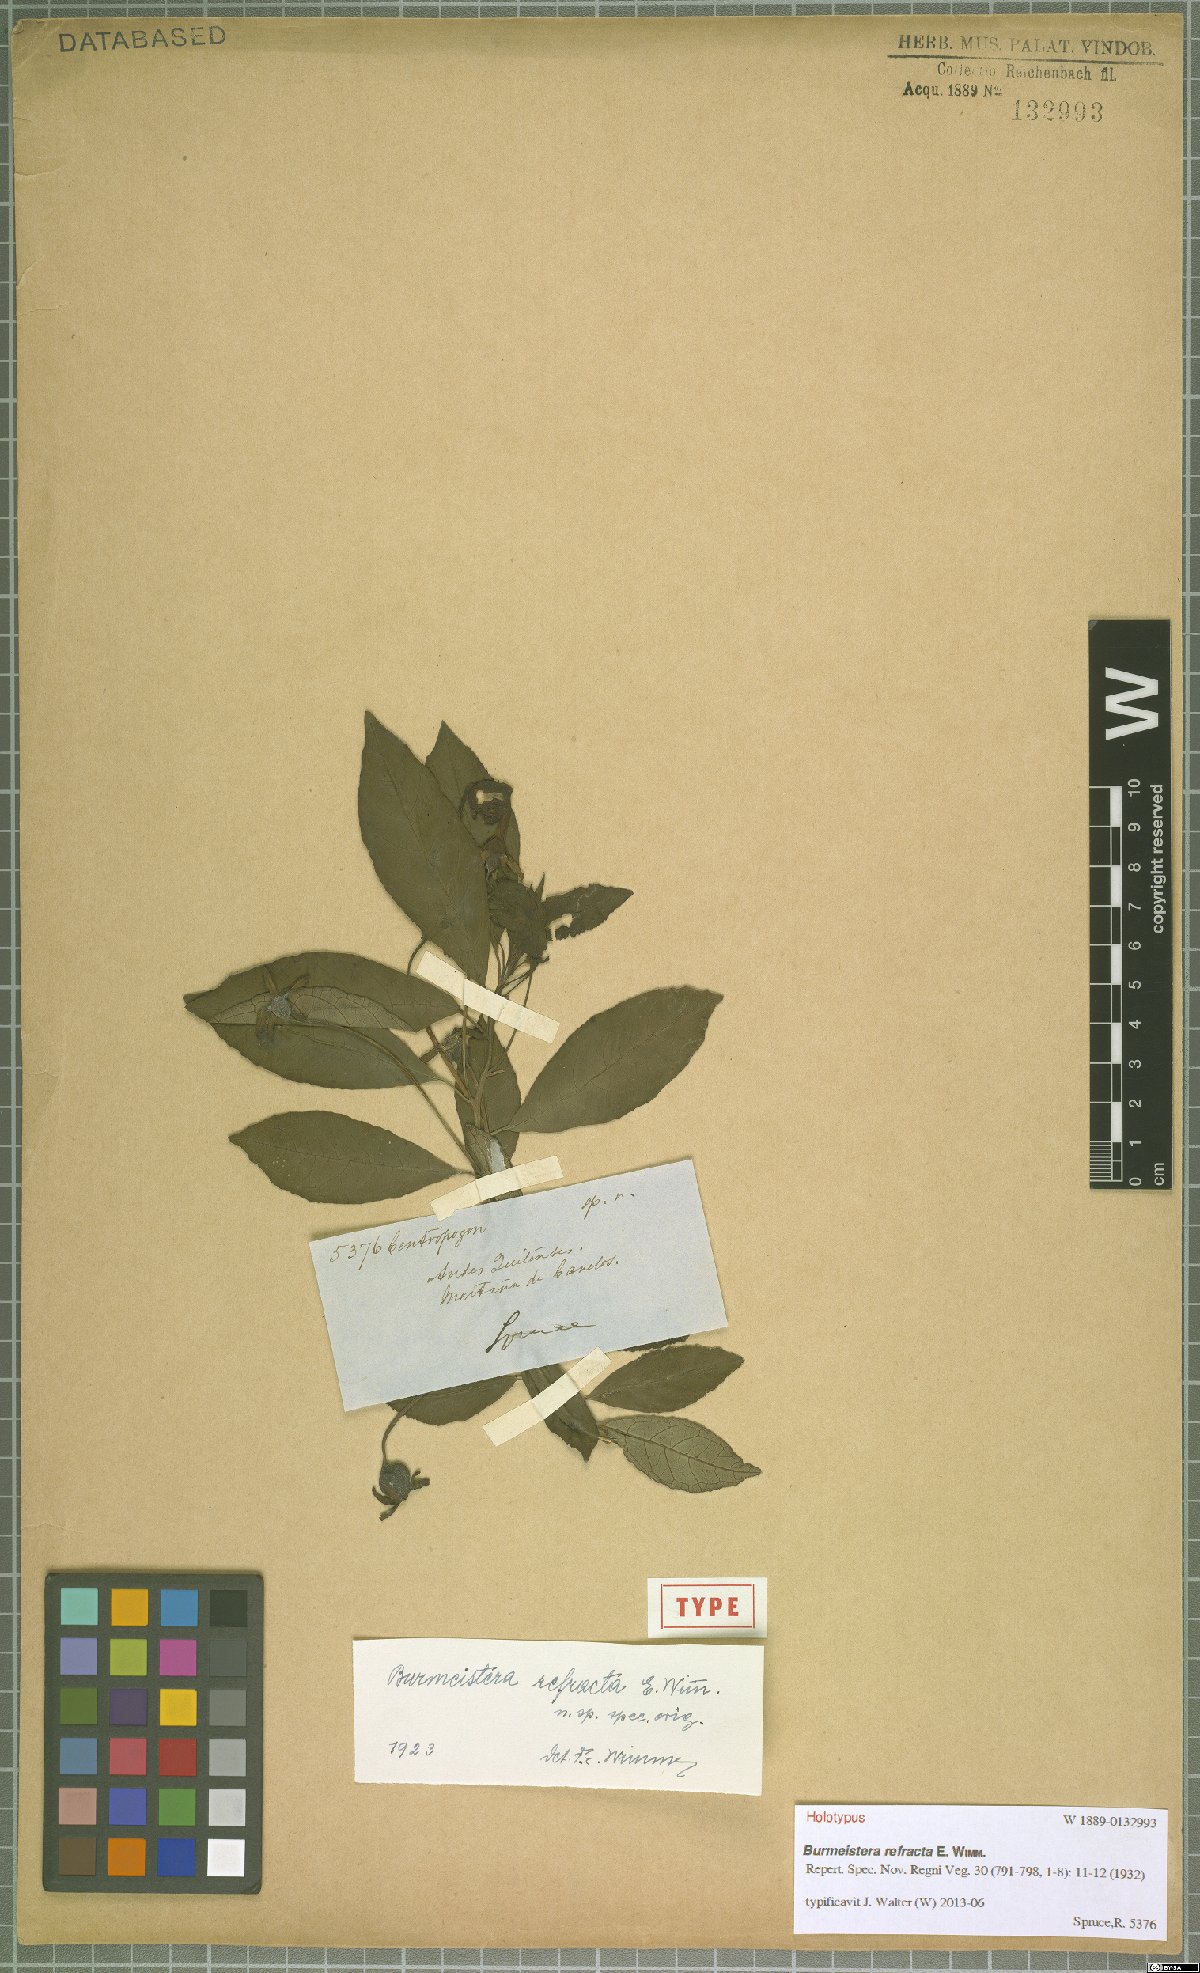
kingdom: Plantae
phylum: Tracheophyta
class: Magnoliopsida
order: Asterales
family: Campanulaceae
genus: Burmeistera
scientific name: Burmeistera refracta
